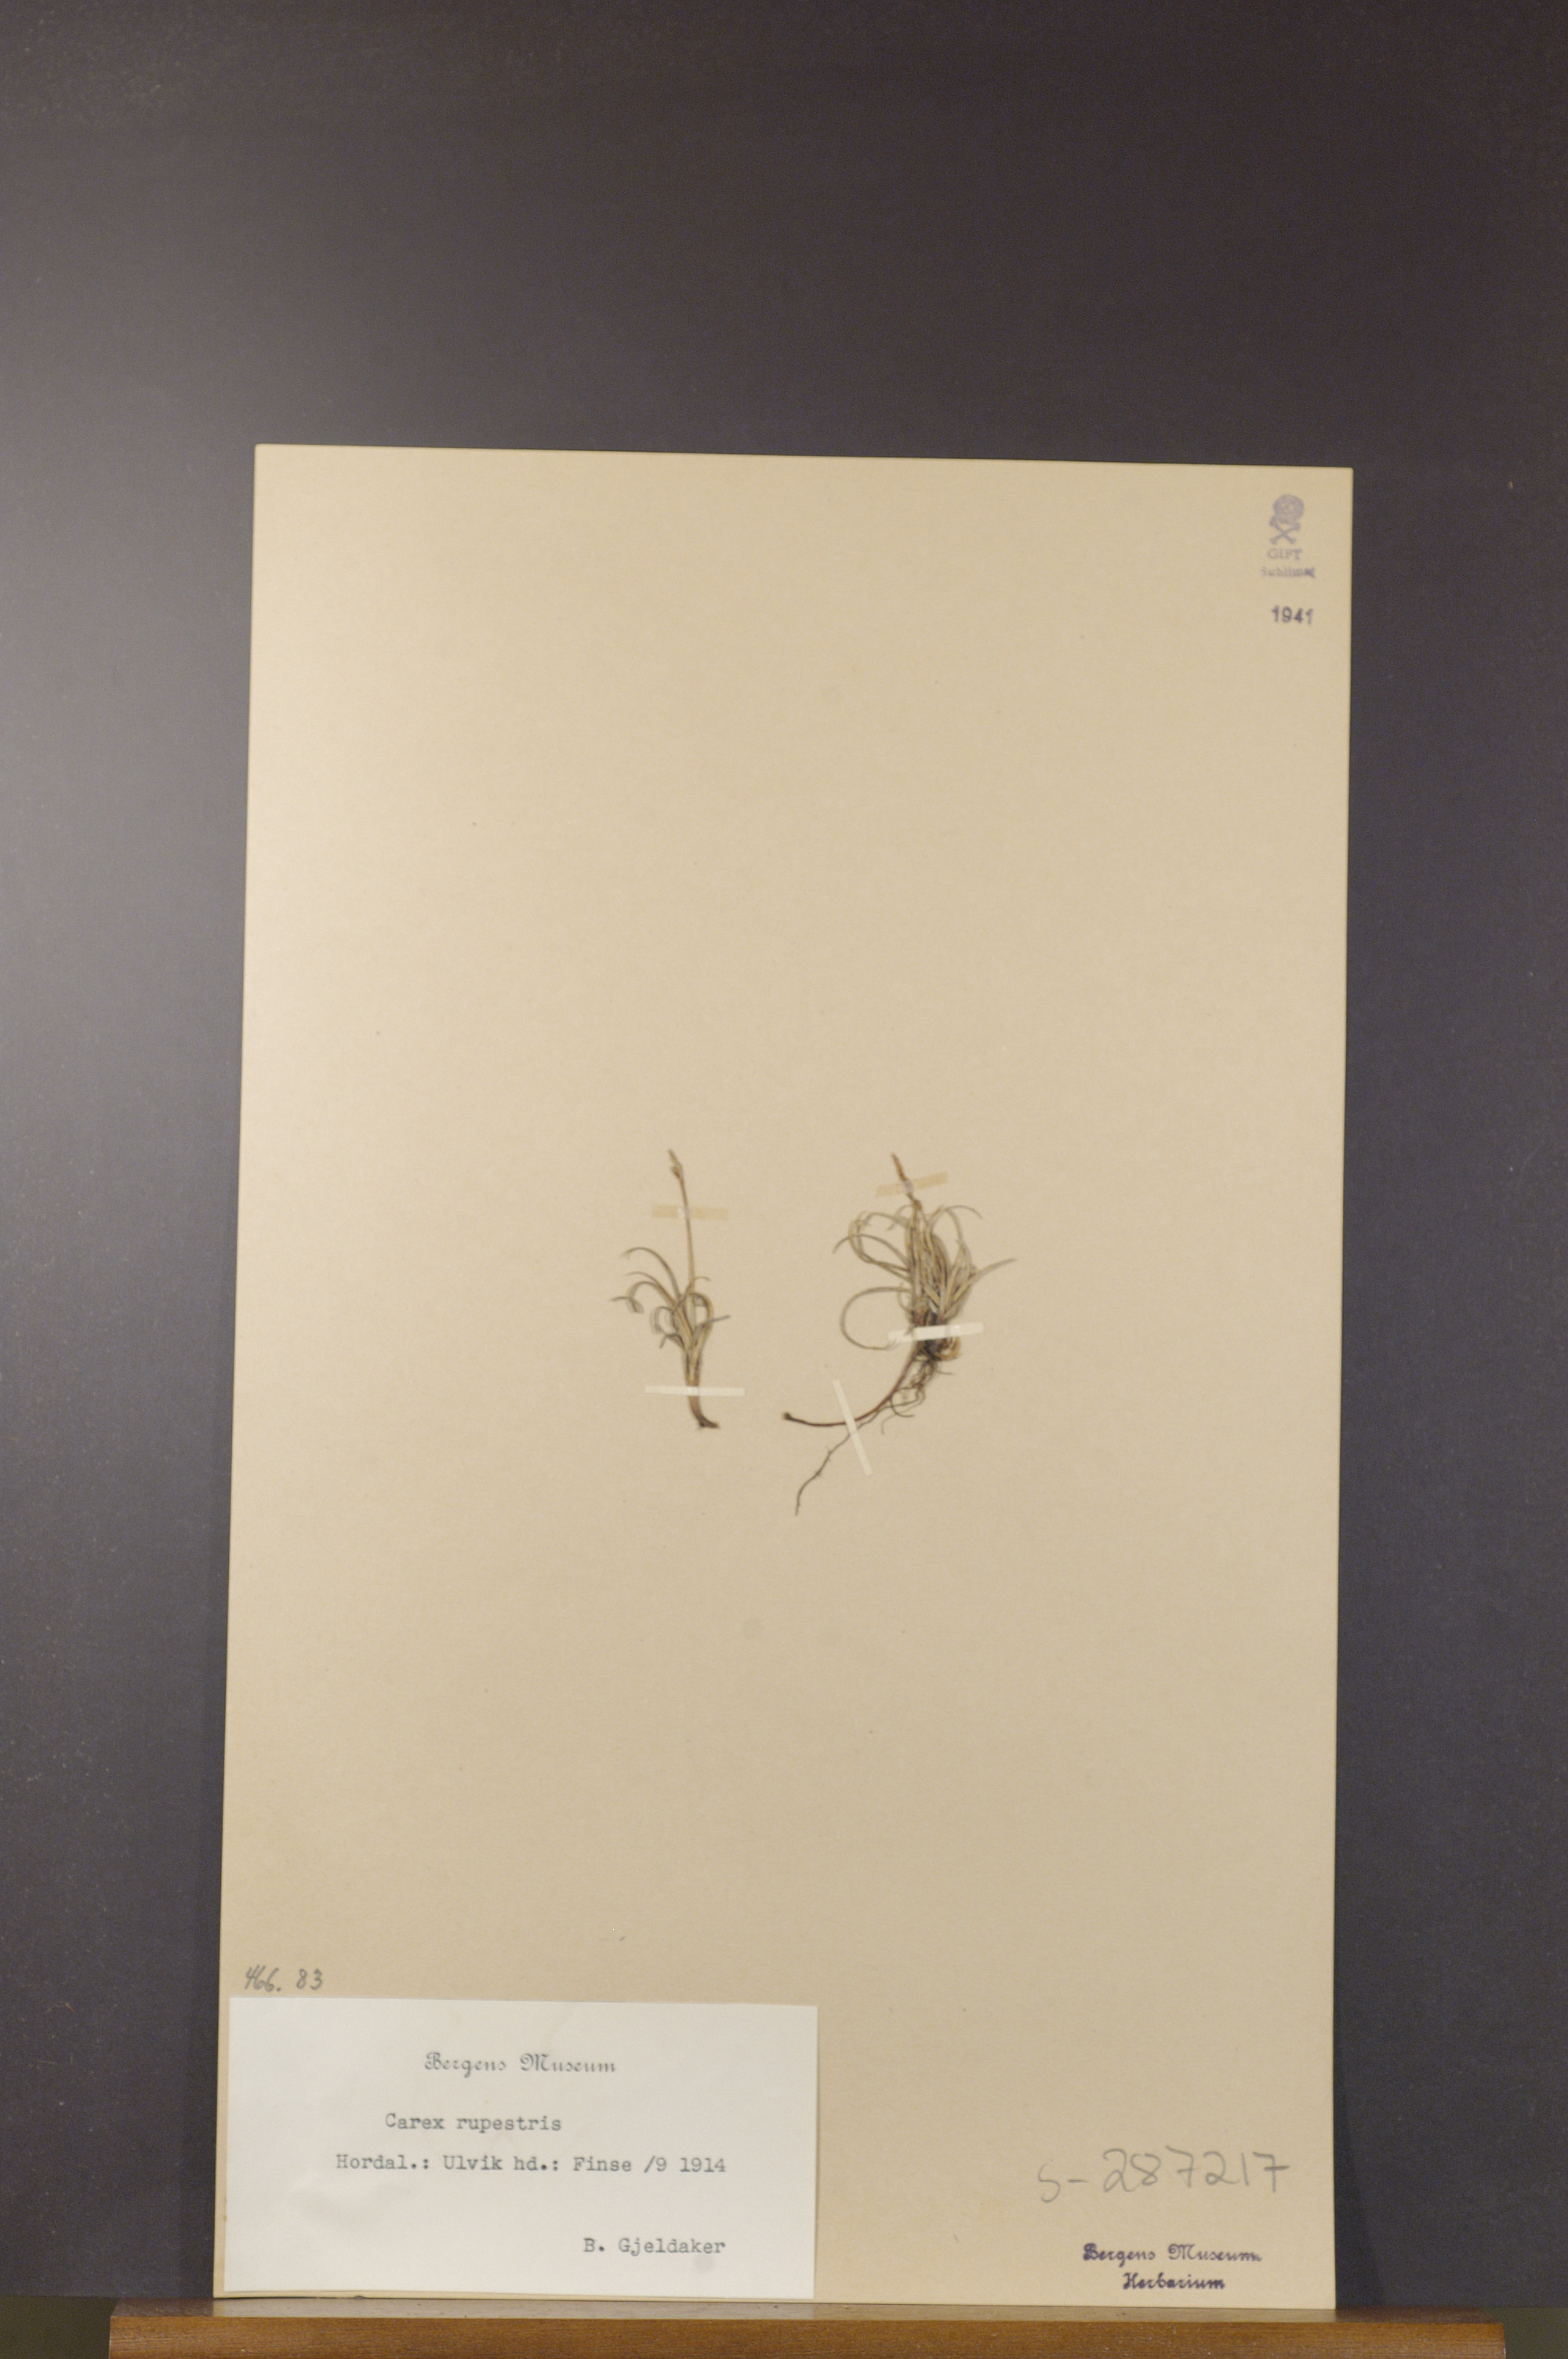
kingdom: Plantae
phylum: Tracheophyta
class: Liliopsida
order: Poales
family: Cyperaceae
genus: Carex
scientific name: Carex rupestris
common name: Rock sedge
